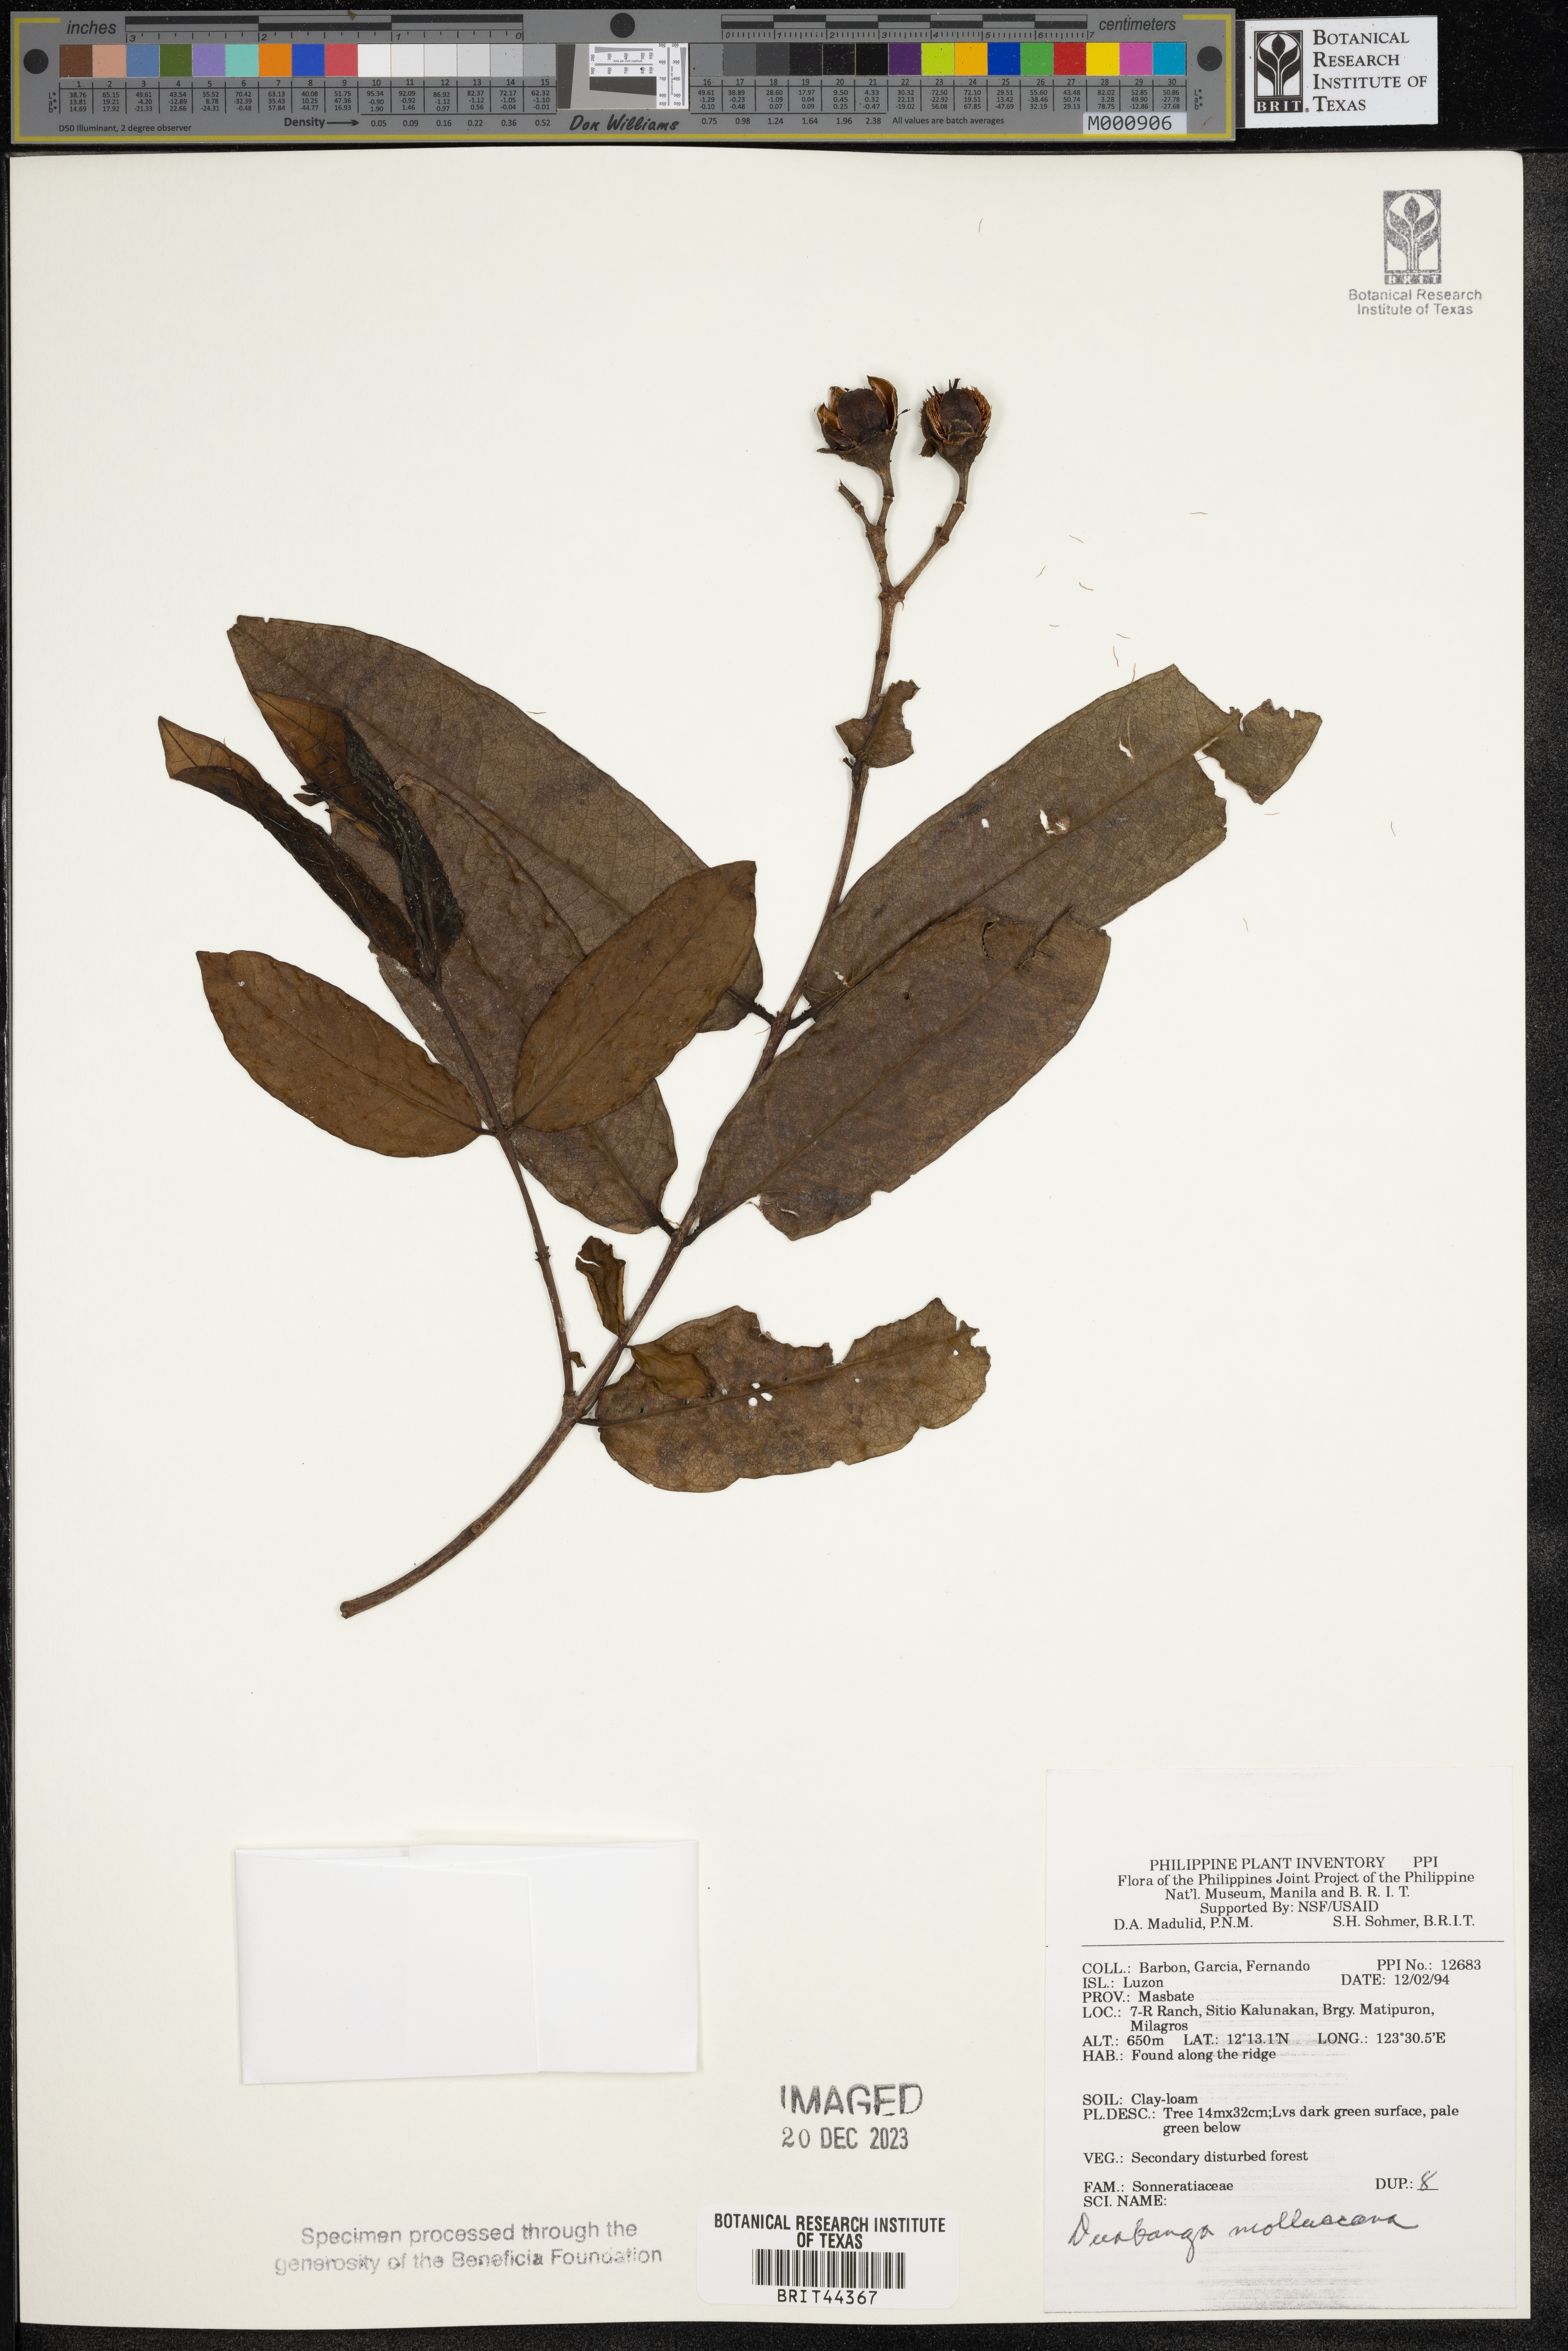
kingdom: Plantae
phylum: Tracheophyta
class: Magnoliopsida
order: Myrtales
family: Lythraceae
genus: Duabanga
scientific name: Duabanga moluccana
